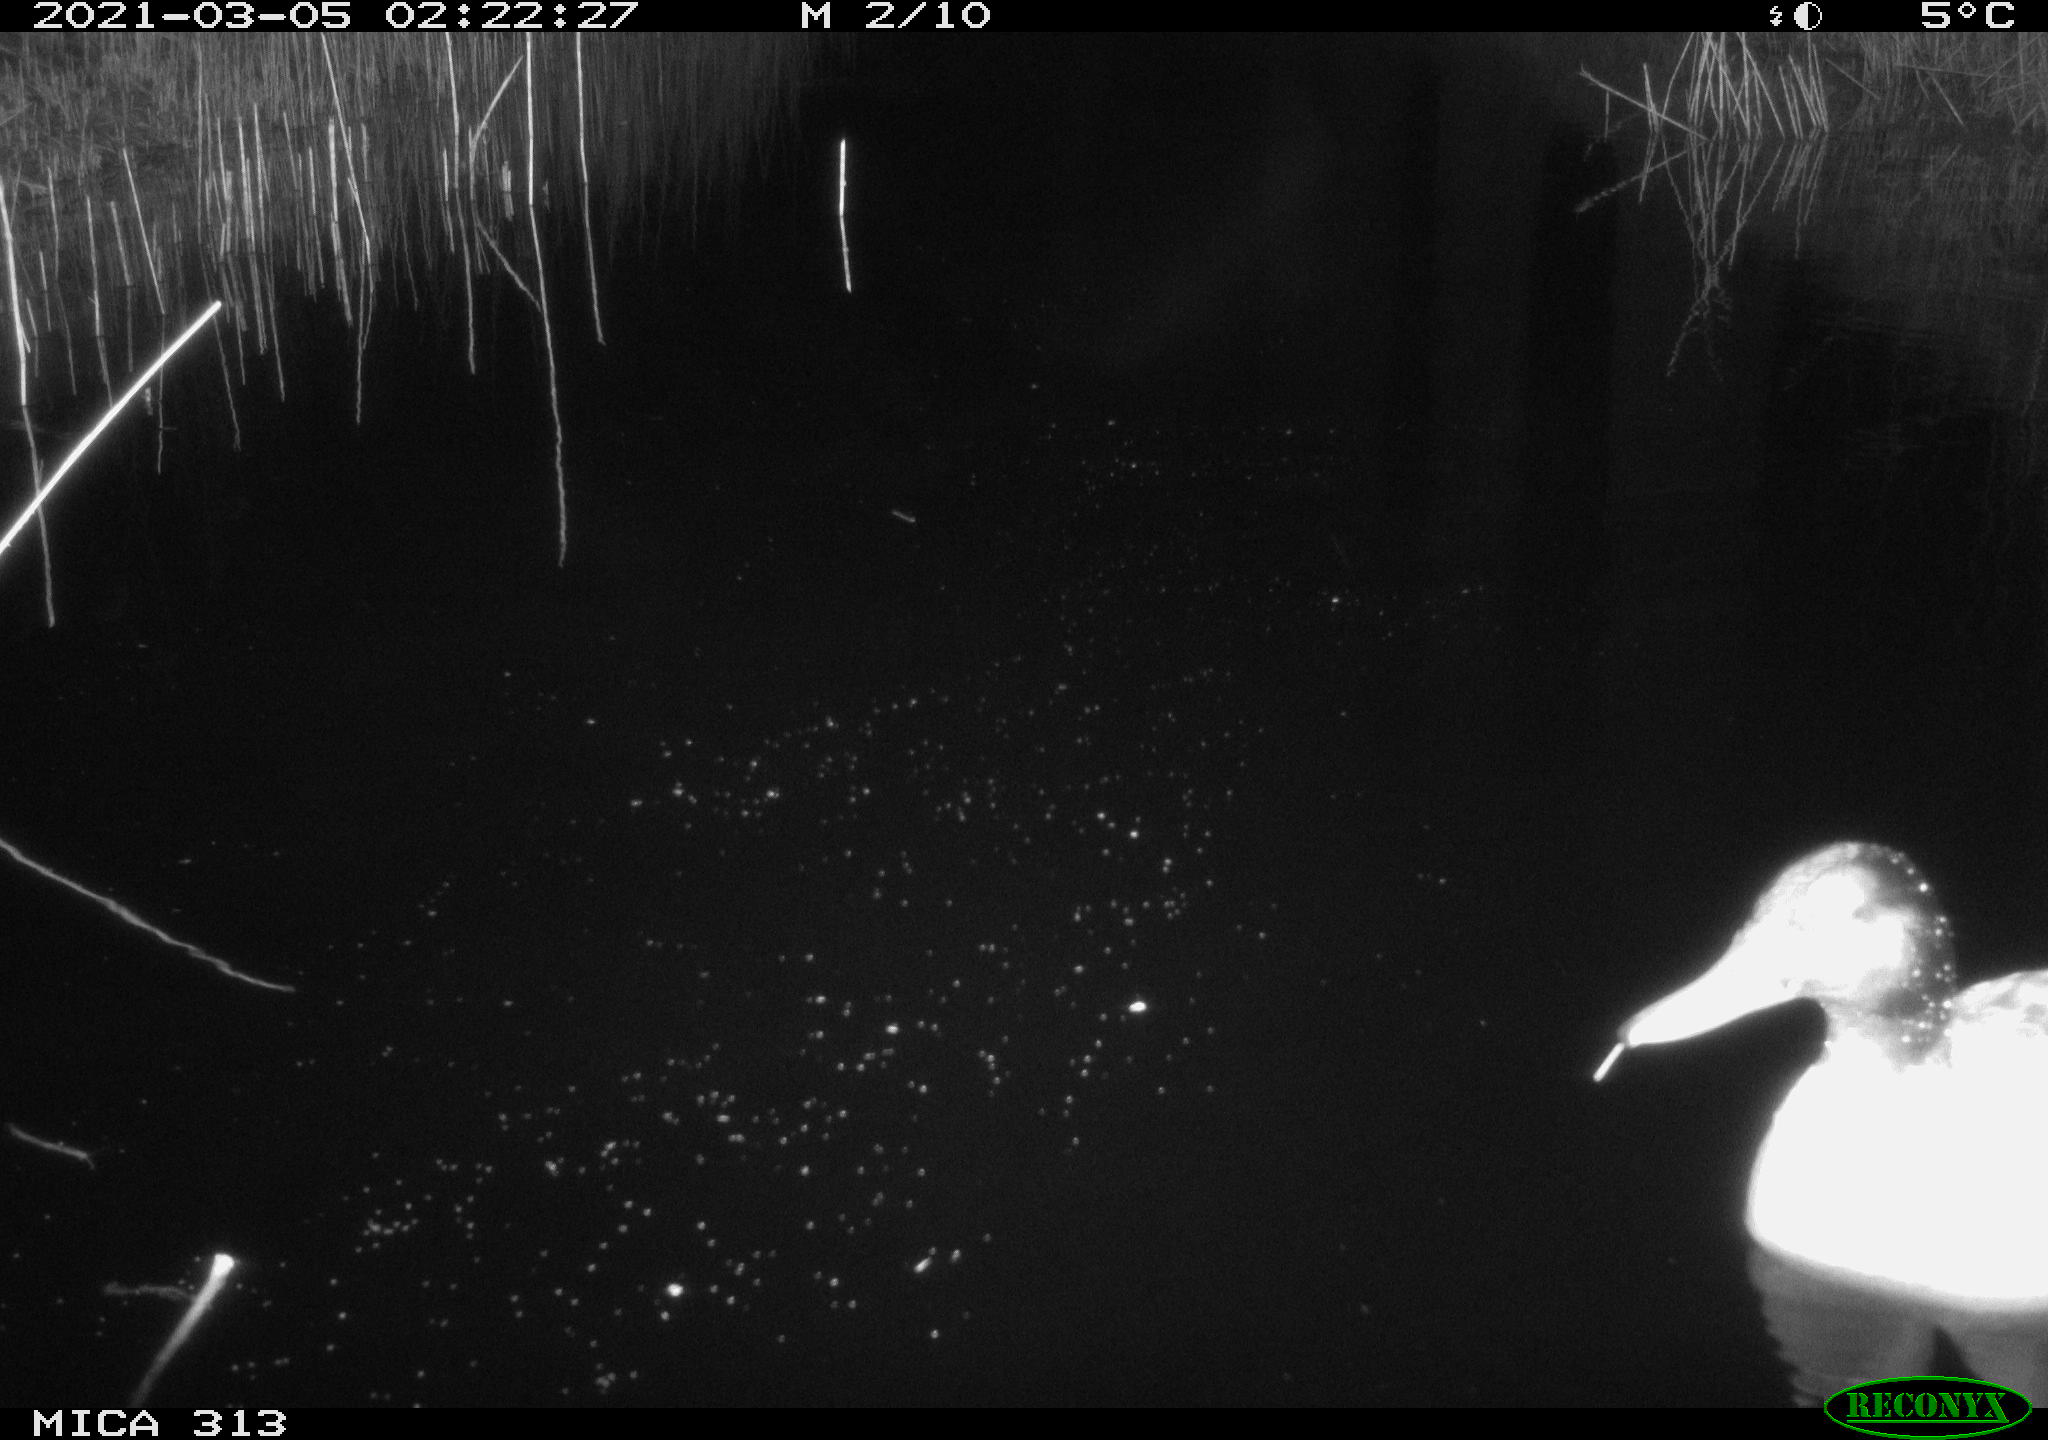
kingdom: Animalia
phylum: Chordata
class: Aves
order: Anseriformes
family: Anatidae
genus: Anas
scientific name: Anas platyrhynchos
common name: Mallard
